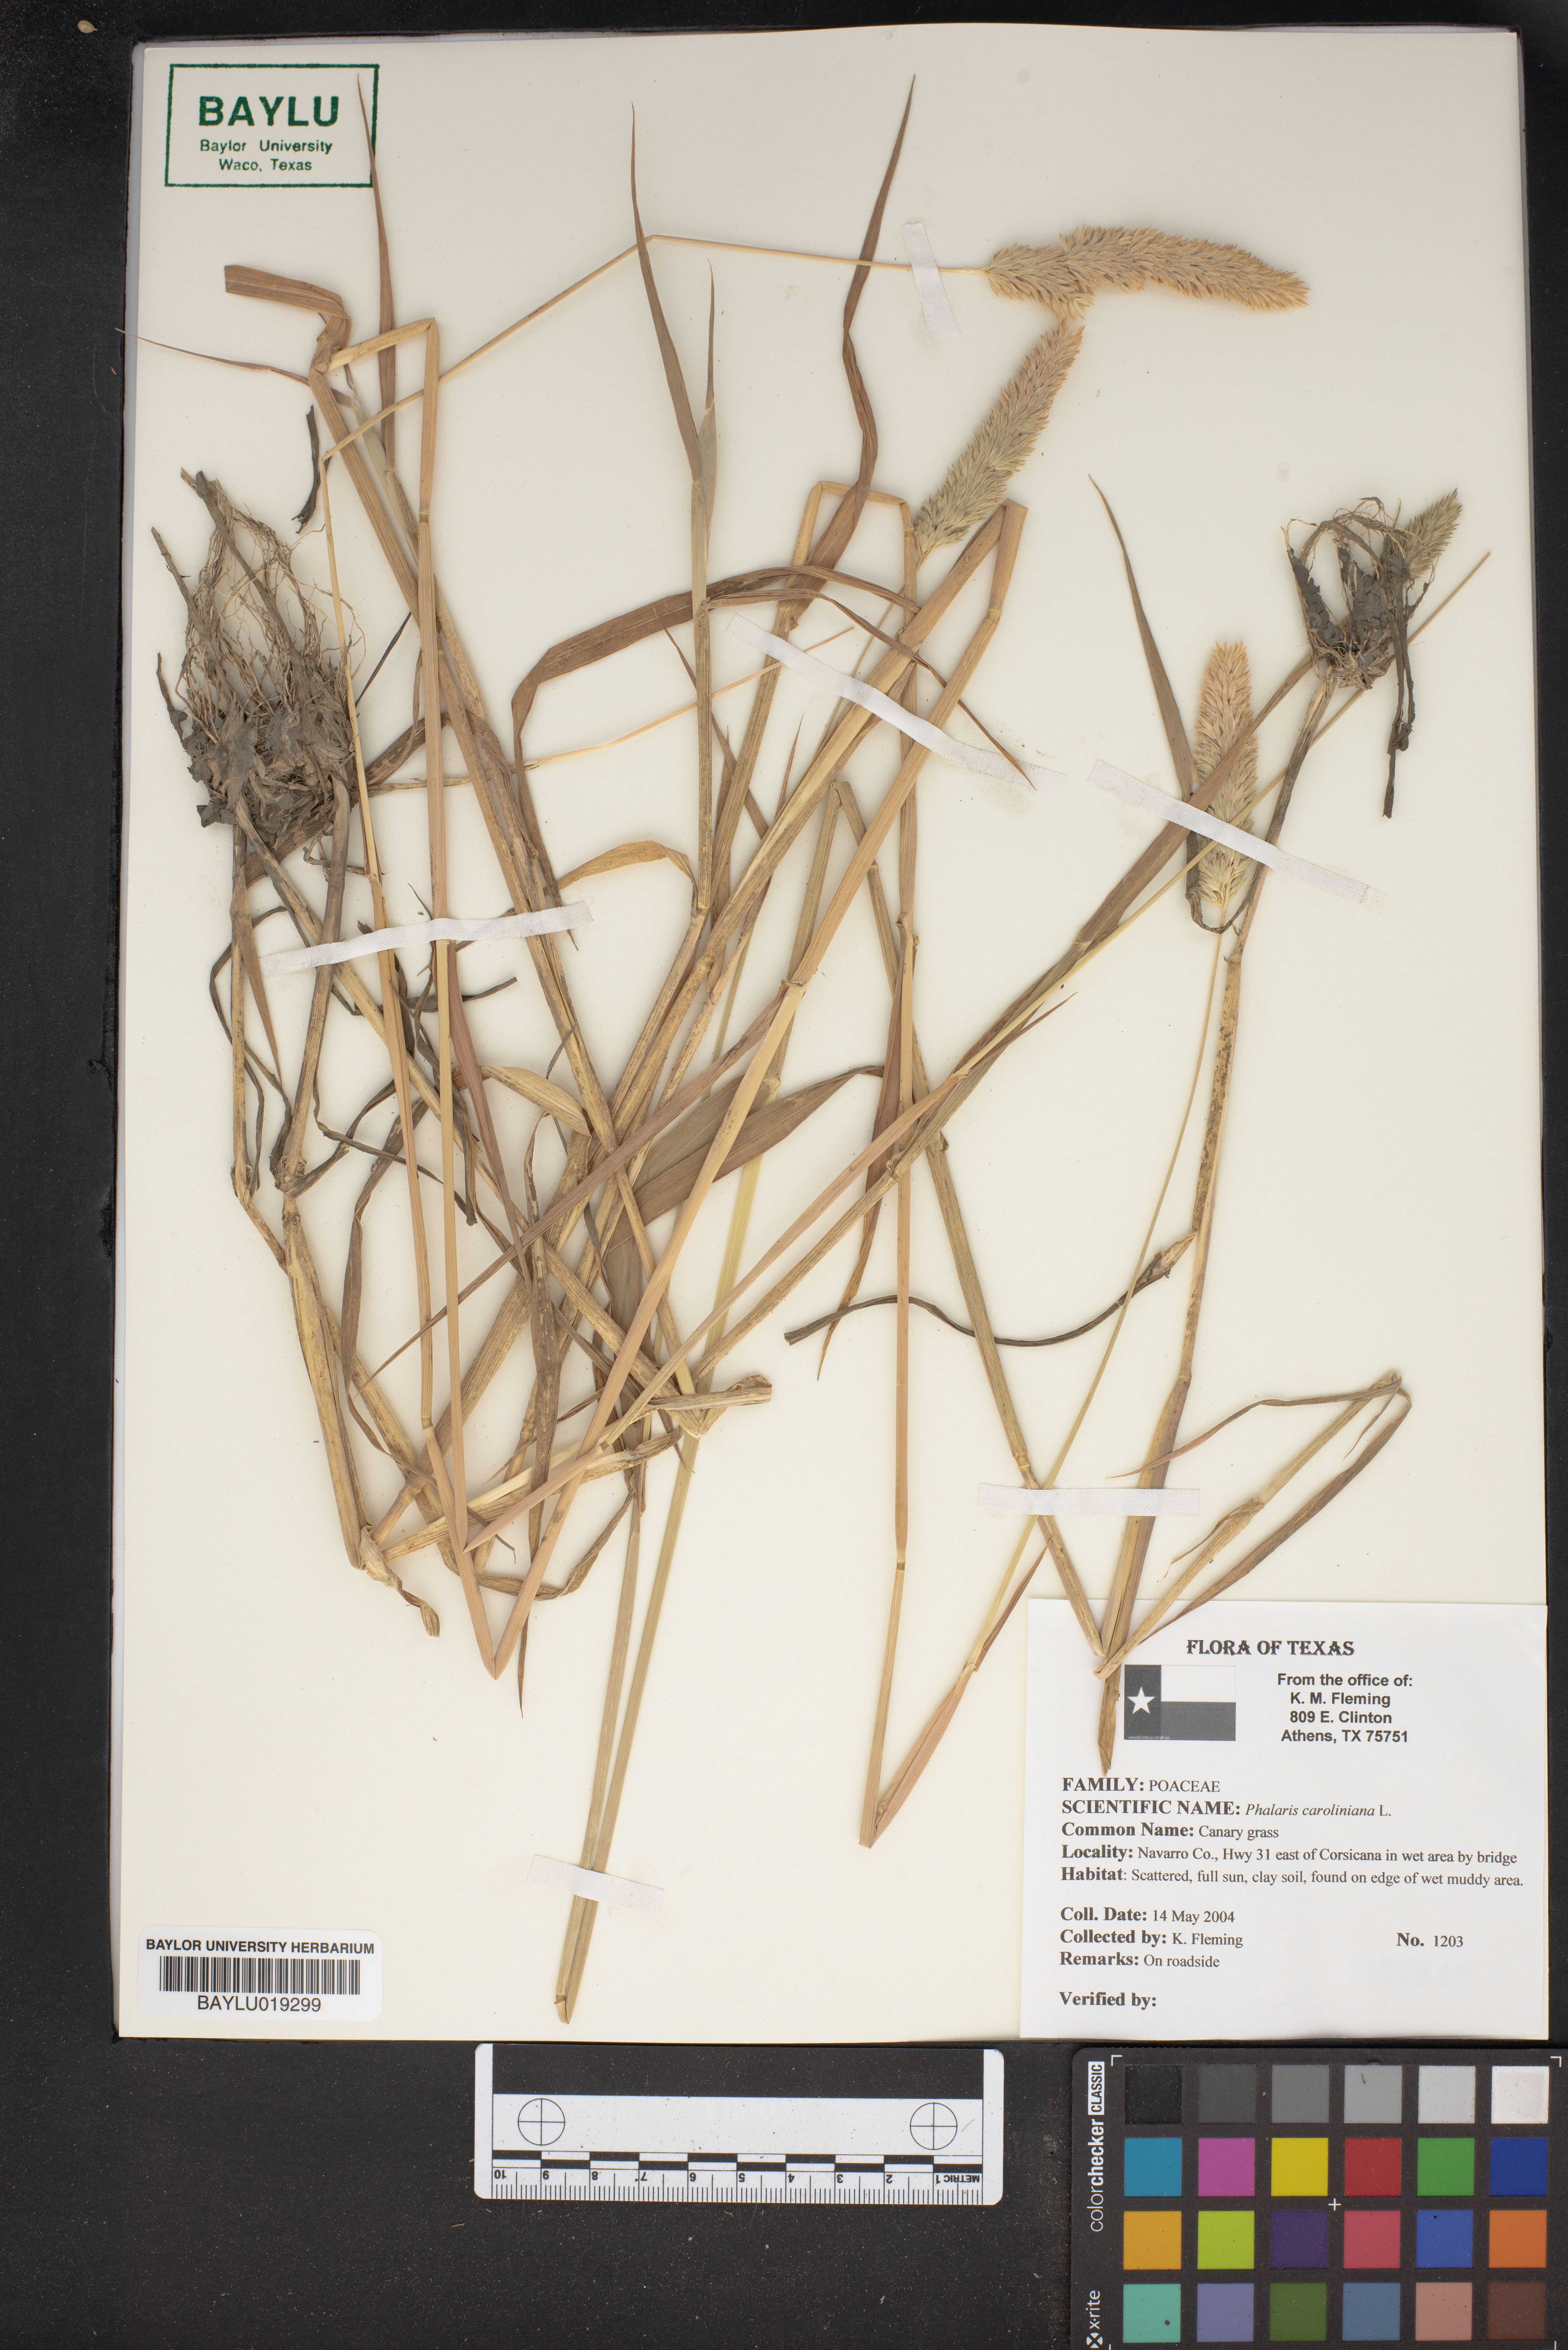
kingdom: Plantae
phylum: Tracheophyta
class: Liliopsida
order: Poales
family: Poaceae
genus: Phalaris
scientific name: Phalaris caroliniana
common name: May grass
